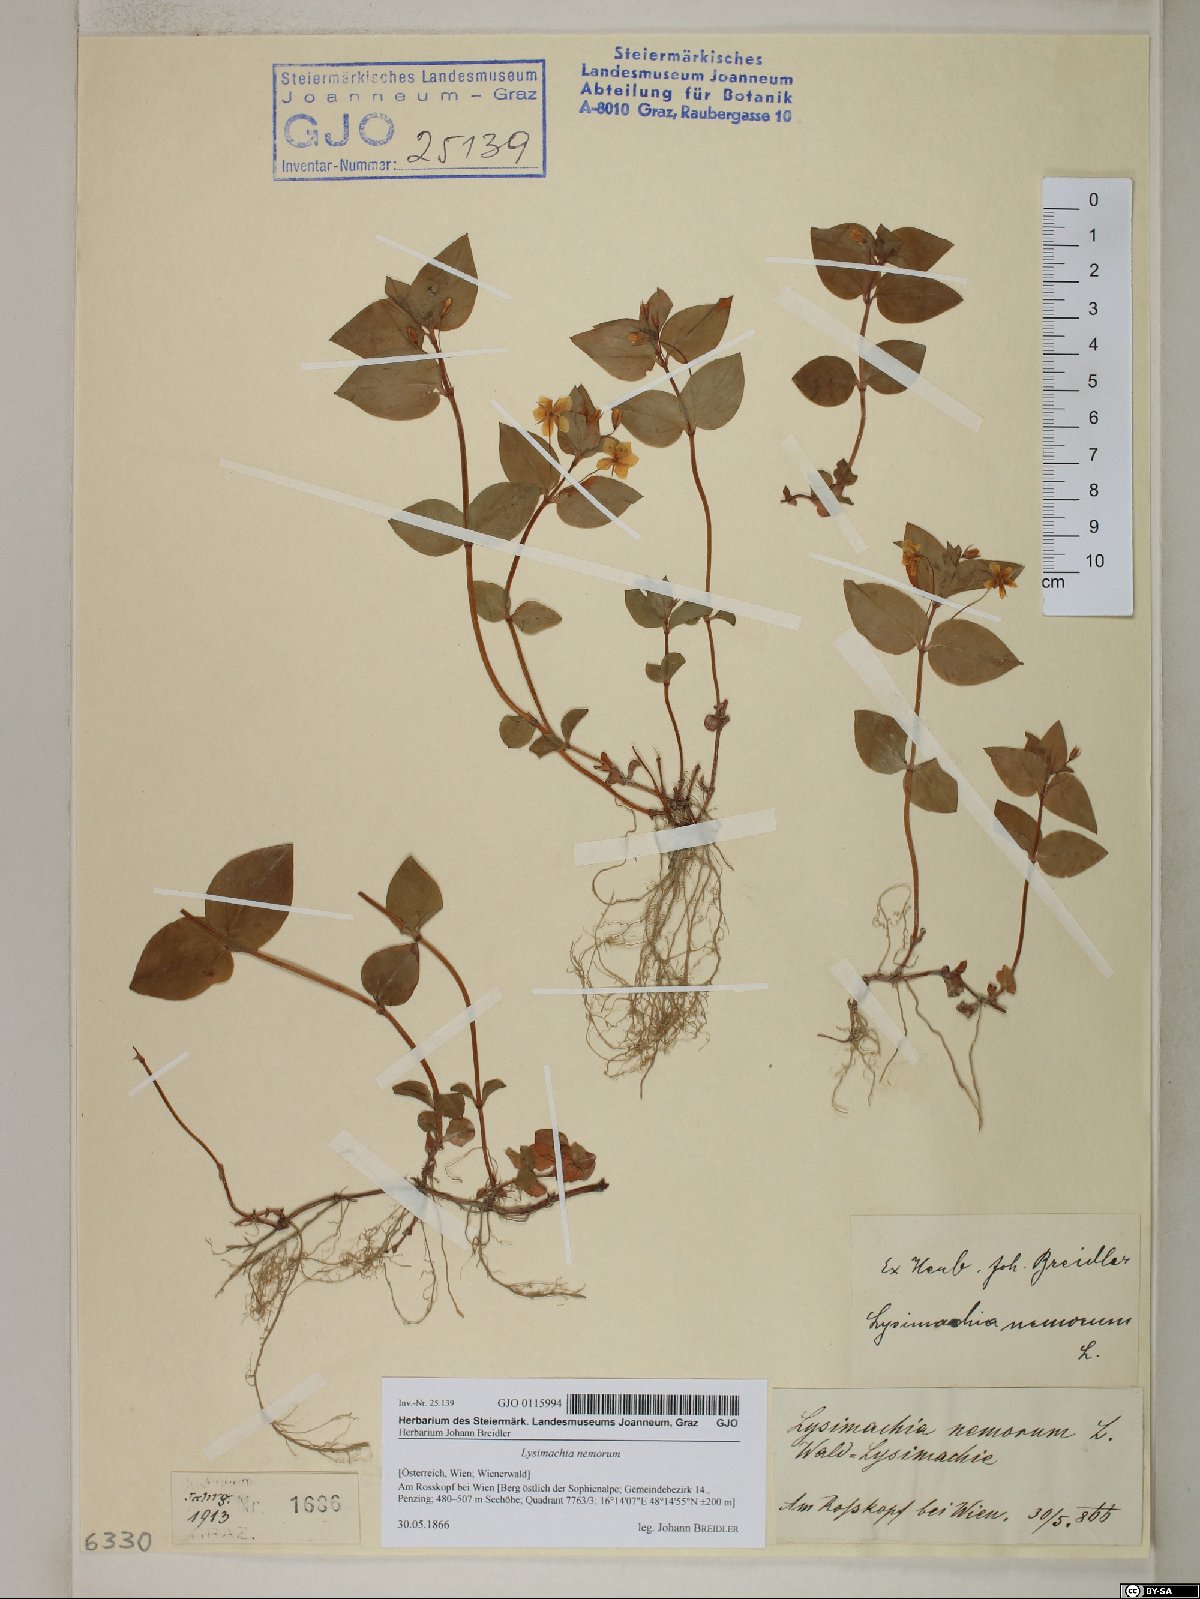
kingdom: Plantae
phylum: Tracheophyta
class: Magnoliopsida
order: Ericales
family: Primulaceae
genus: Lysimachia
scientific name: Lysimachia nemorum
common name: Yellow pimpernel
